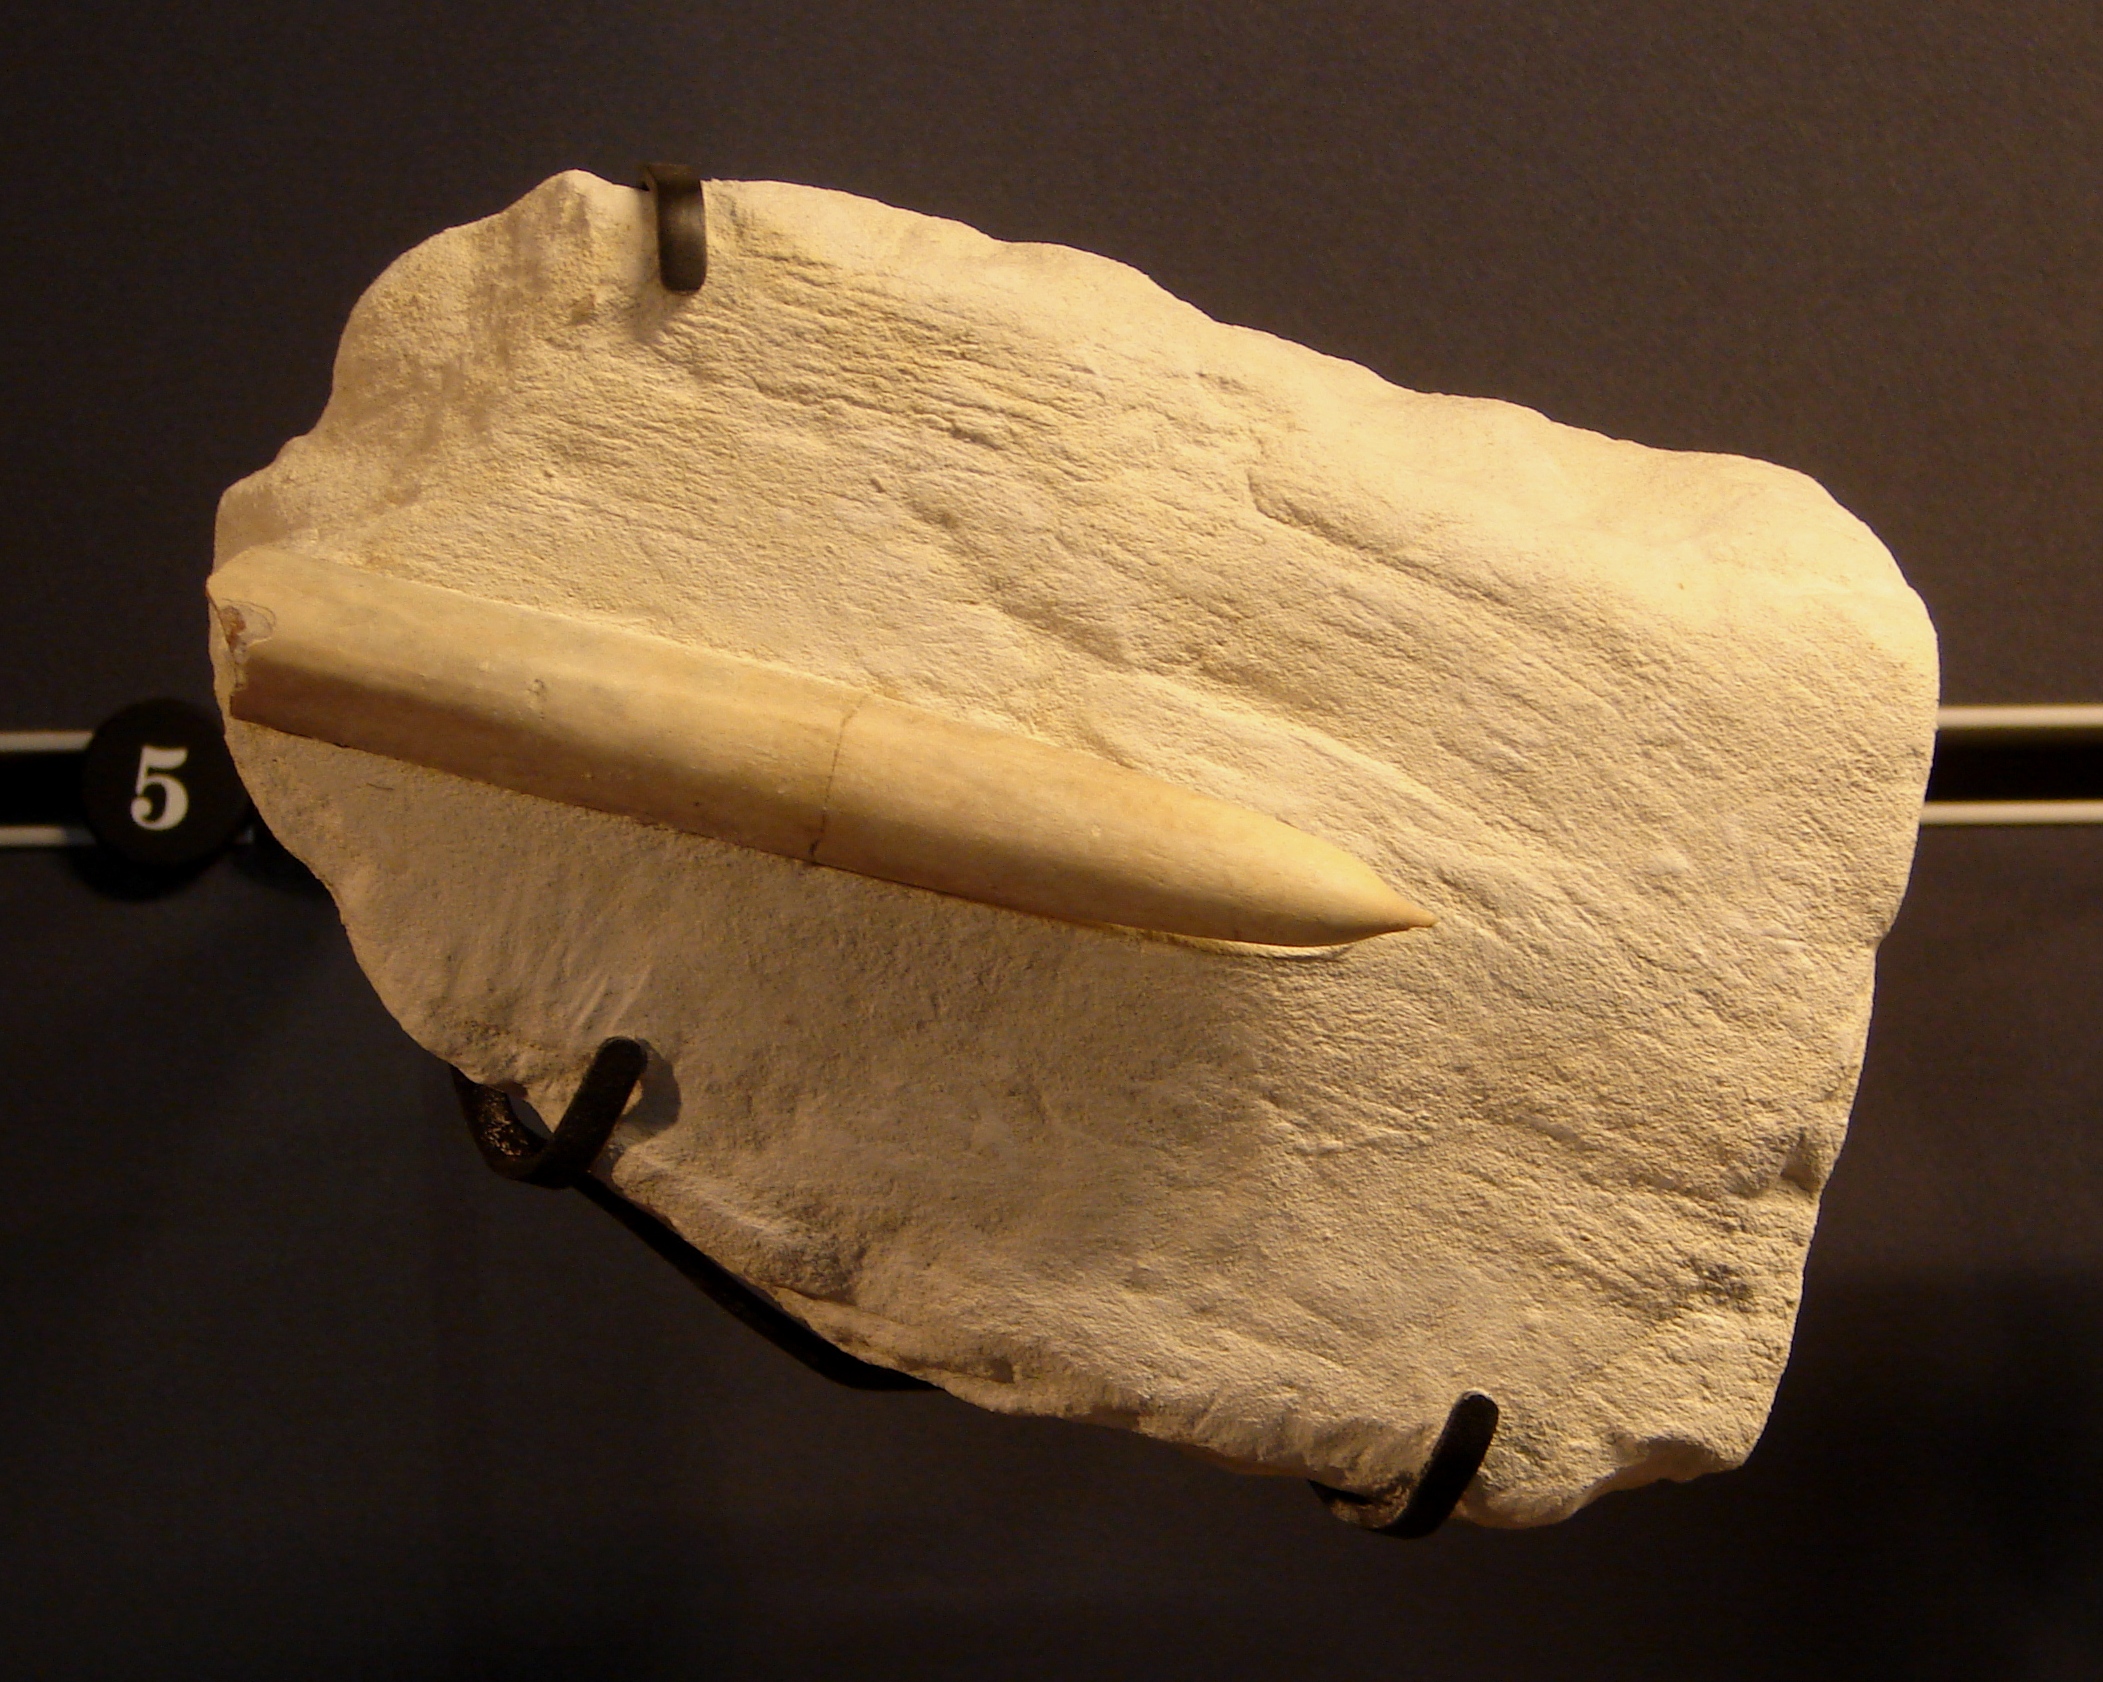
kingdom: Animalia
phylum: Mollusca
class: Cephalopoda
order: Belemnitida
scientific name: Belemnitida
